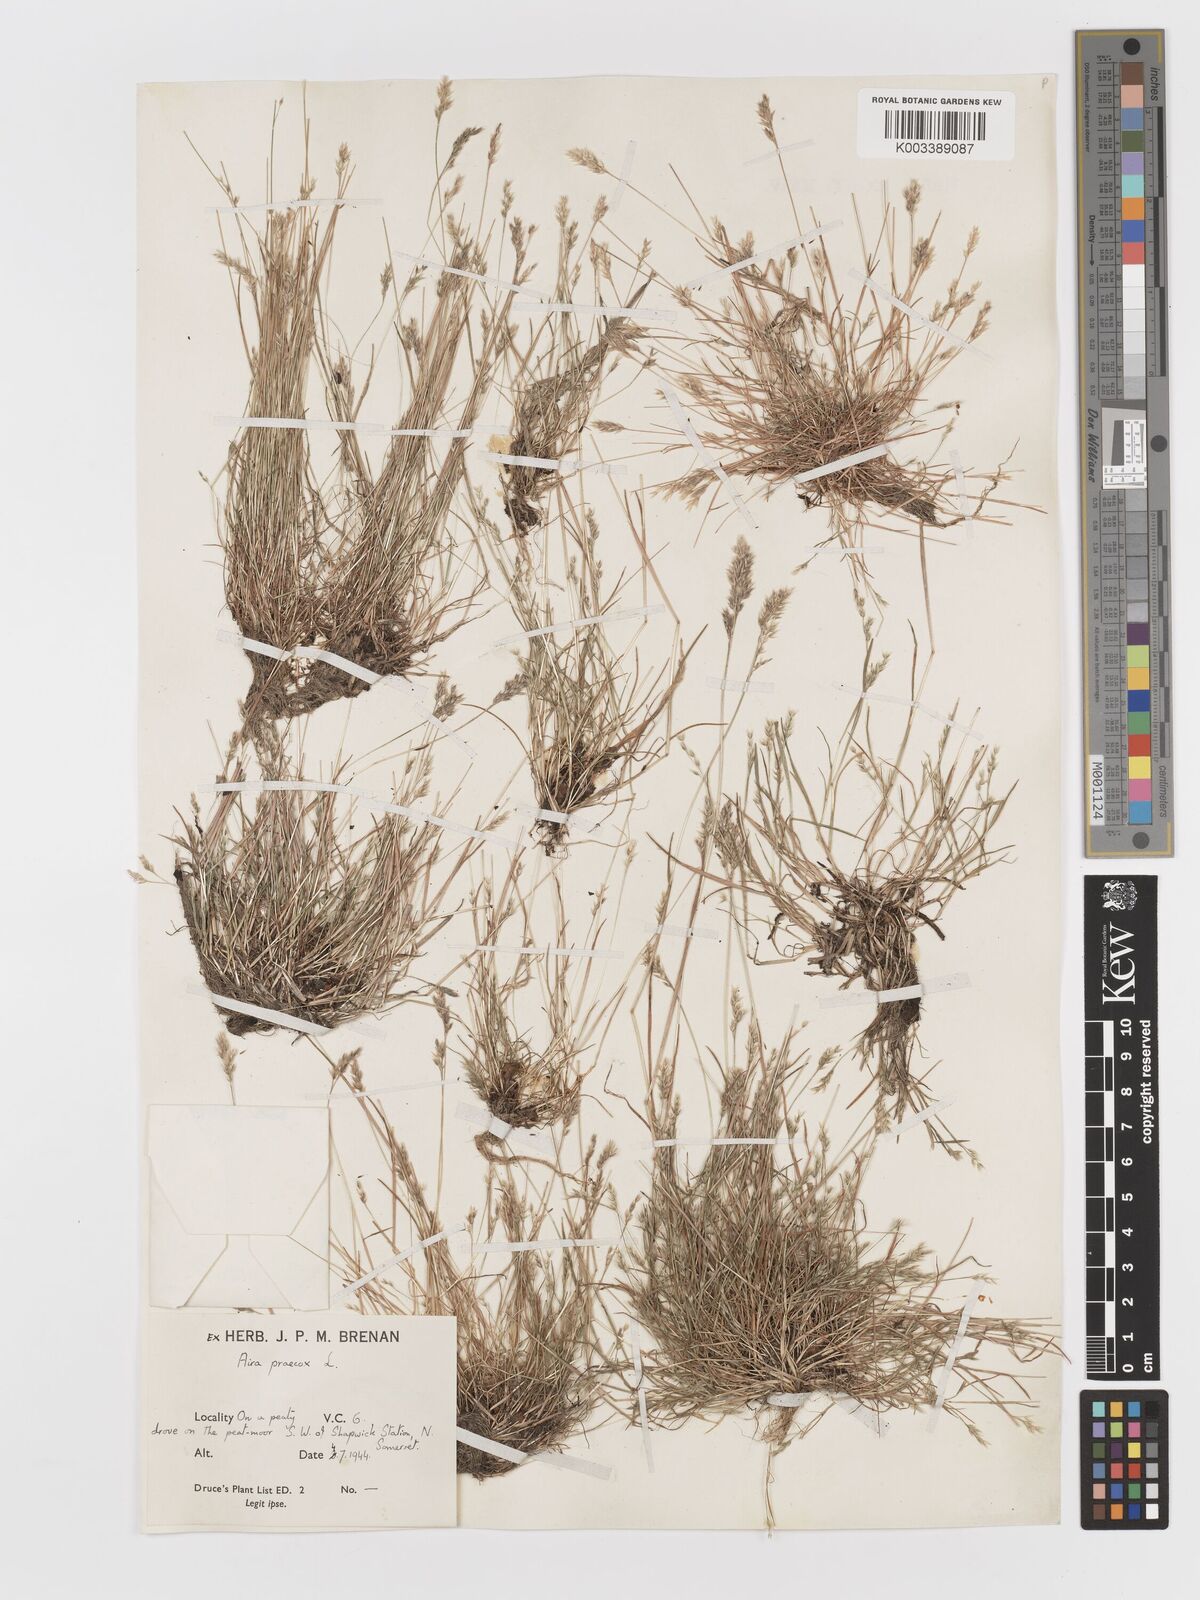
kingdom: Plantae
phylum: Tracheophyta
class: Liliopsida
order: Poales
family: Poaceae
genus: Aira
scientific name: Aira praecox
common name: Early hair-grass
